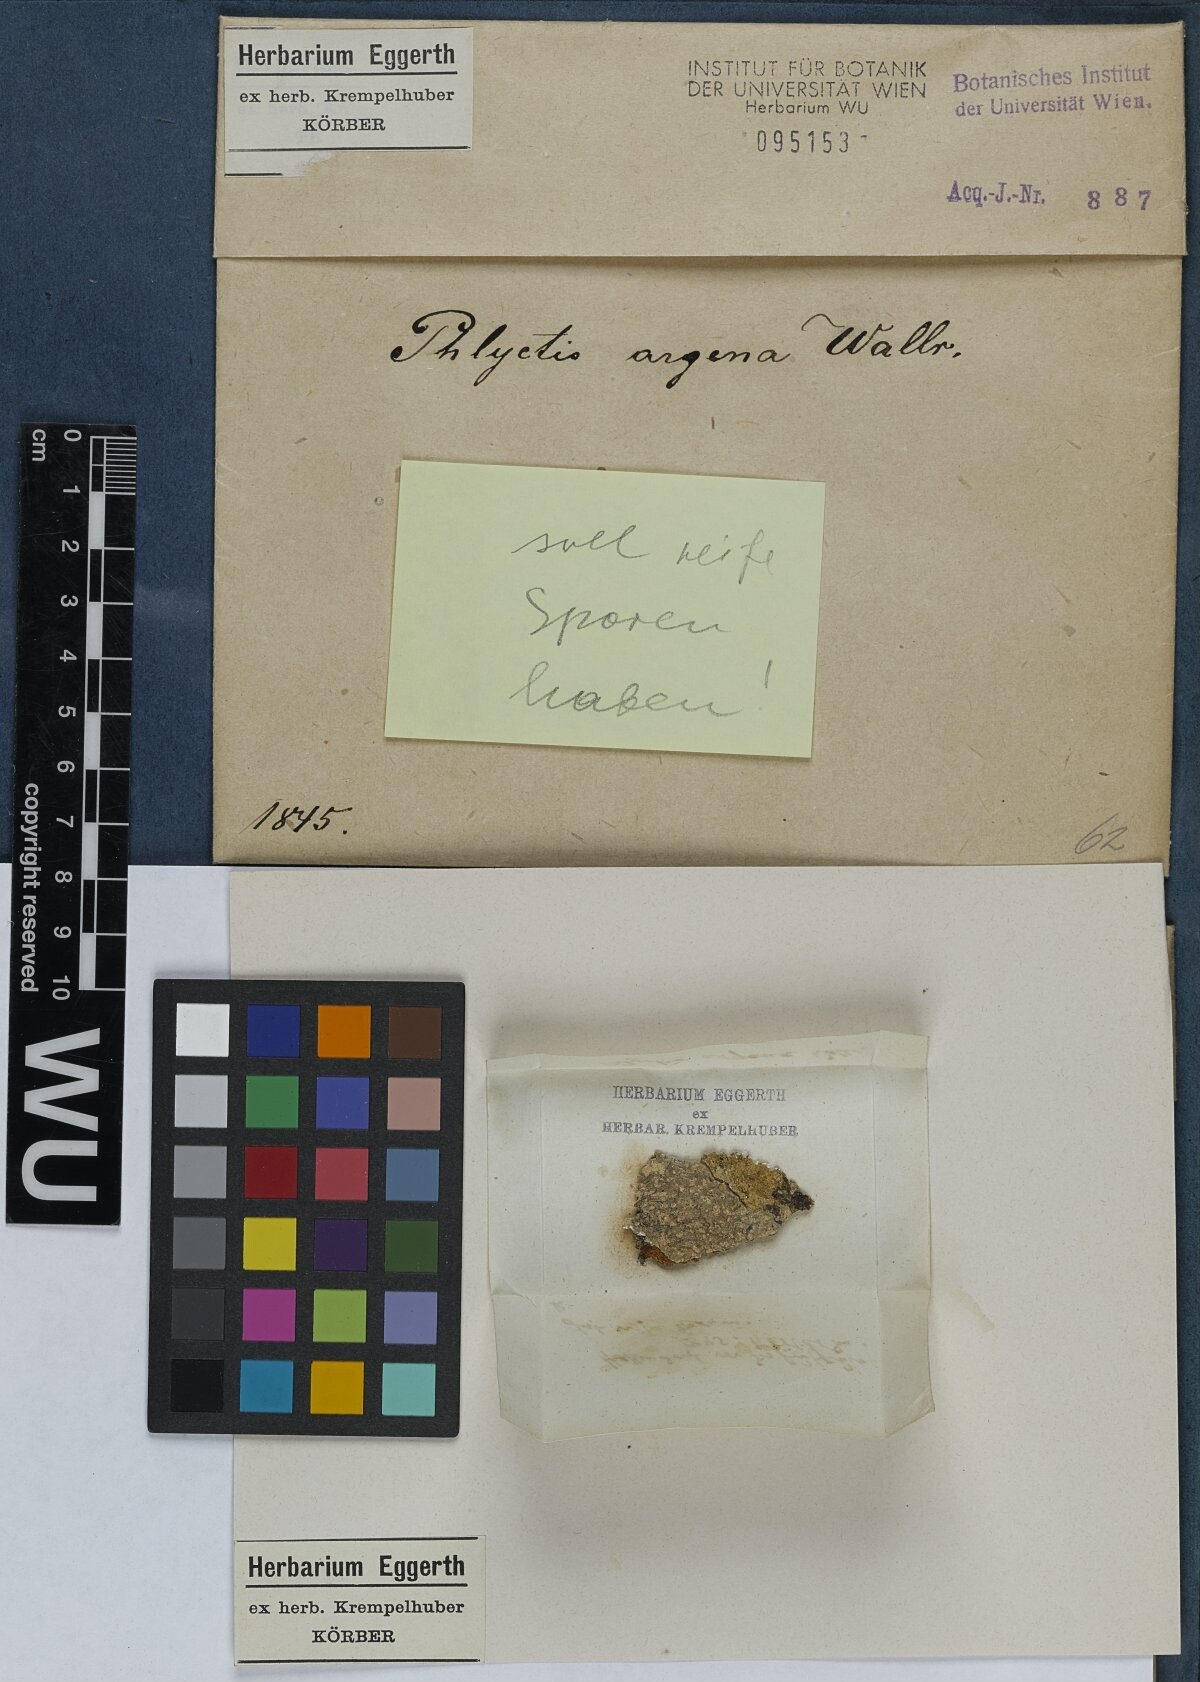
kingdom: Fungi
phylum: Ascomycota
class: Lecanoromycetes
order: Ostropales
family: Phlyctidaceae
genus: Phlyctis
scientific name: Phlyctis argena
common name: Whitewash lichen
